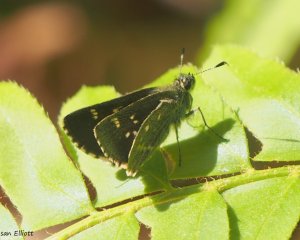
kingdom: Animalia
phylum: Arthropoda
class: Insecta
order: Lepidoptera
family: Hesperiidae
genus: Mastor
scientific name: Mastor hegon
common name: Pepper and Salt Skipper
